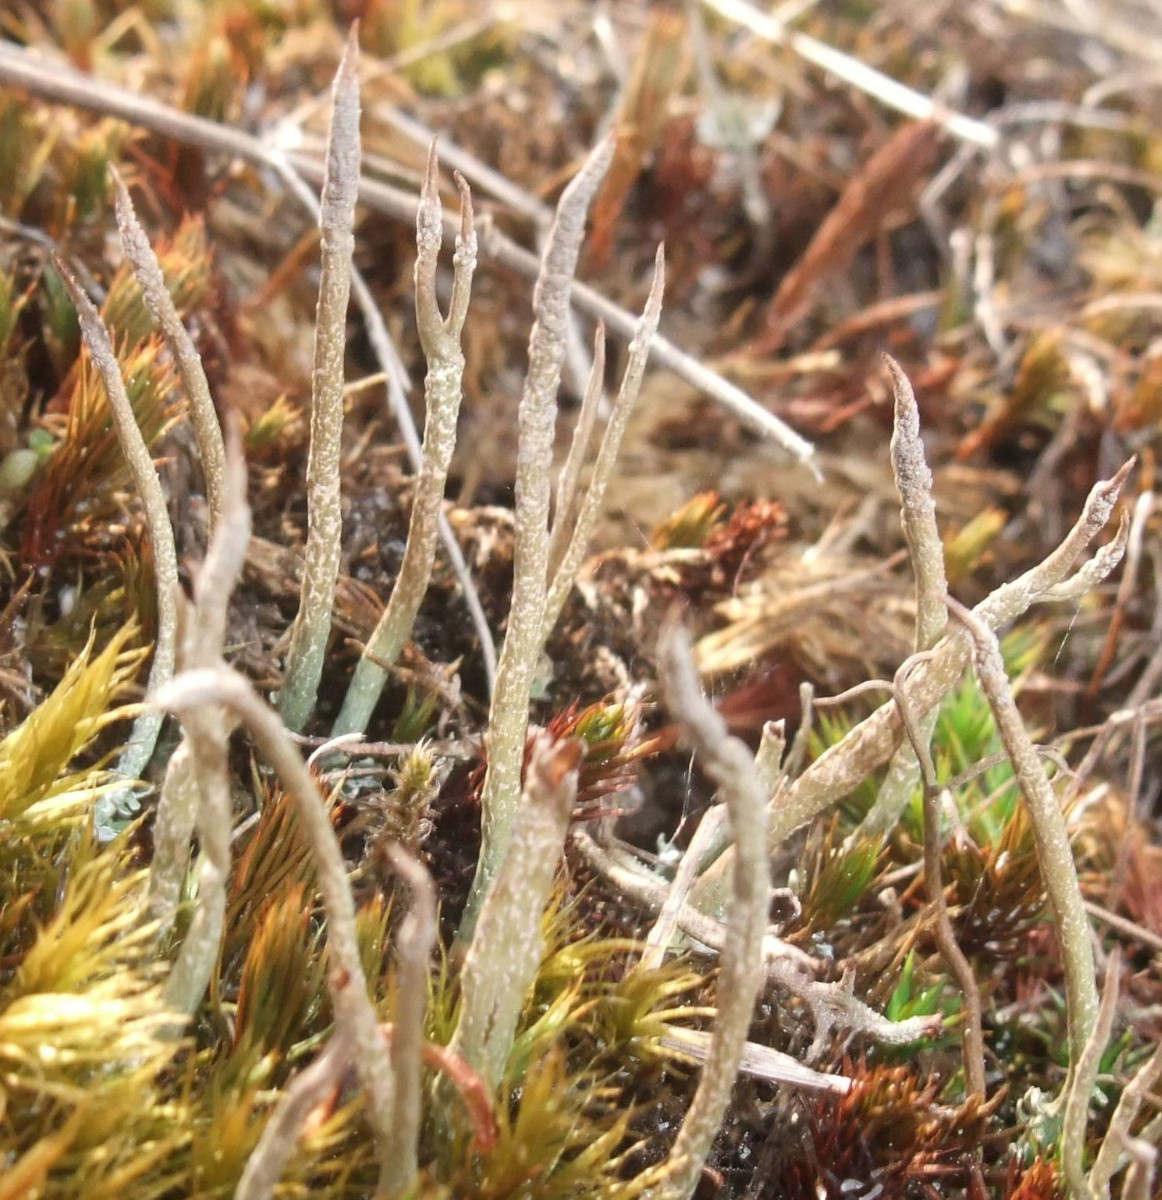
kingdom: Fungi
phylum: Ascomycota
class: Lecanoromycetes
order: Lecanorales
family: Cladoniaceae
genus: Cladonia
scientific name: Cladonia cornuta
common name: syl-bægerlav
